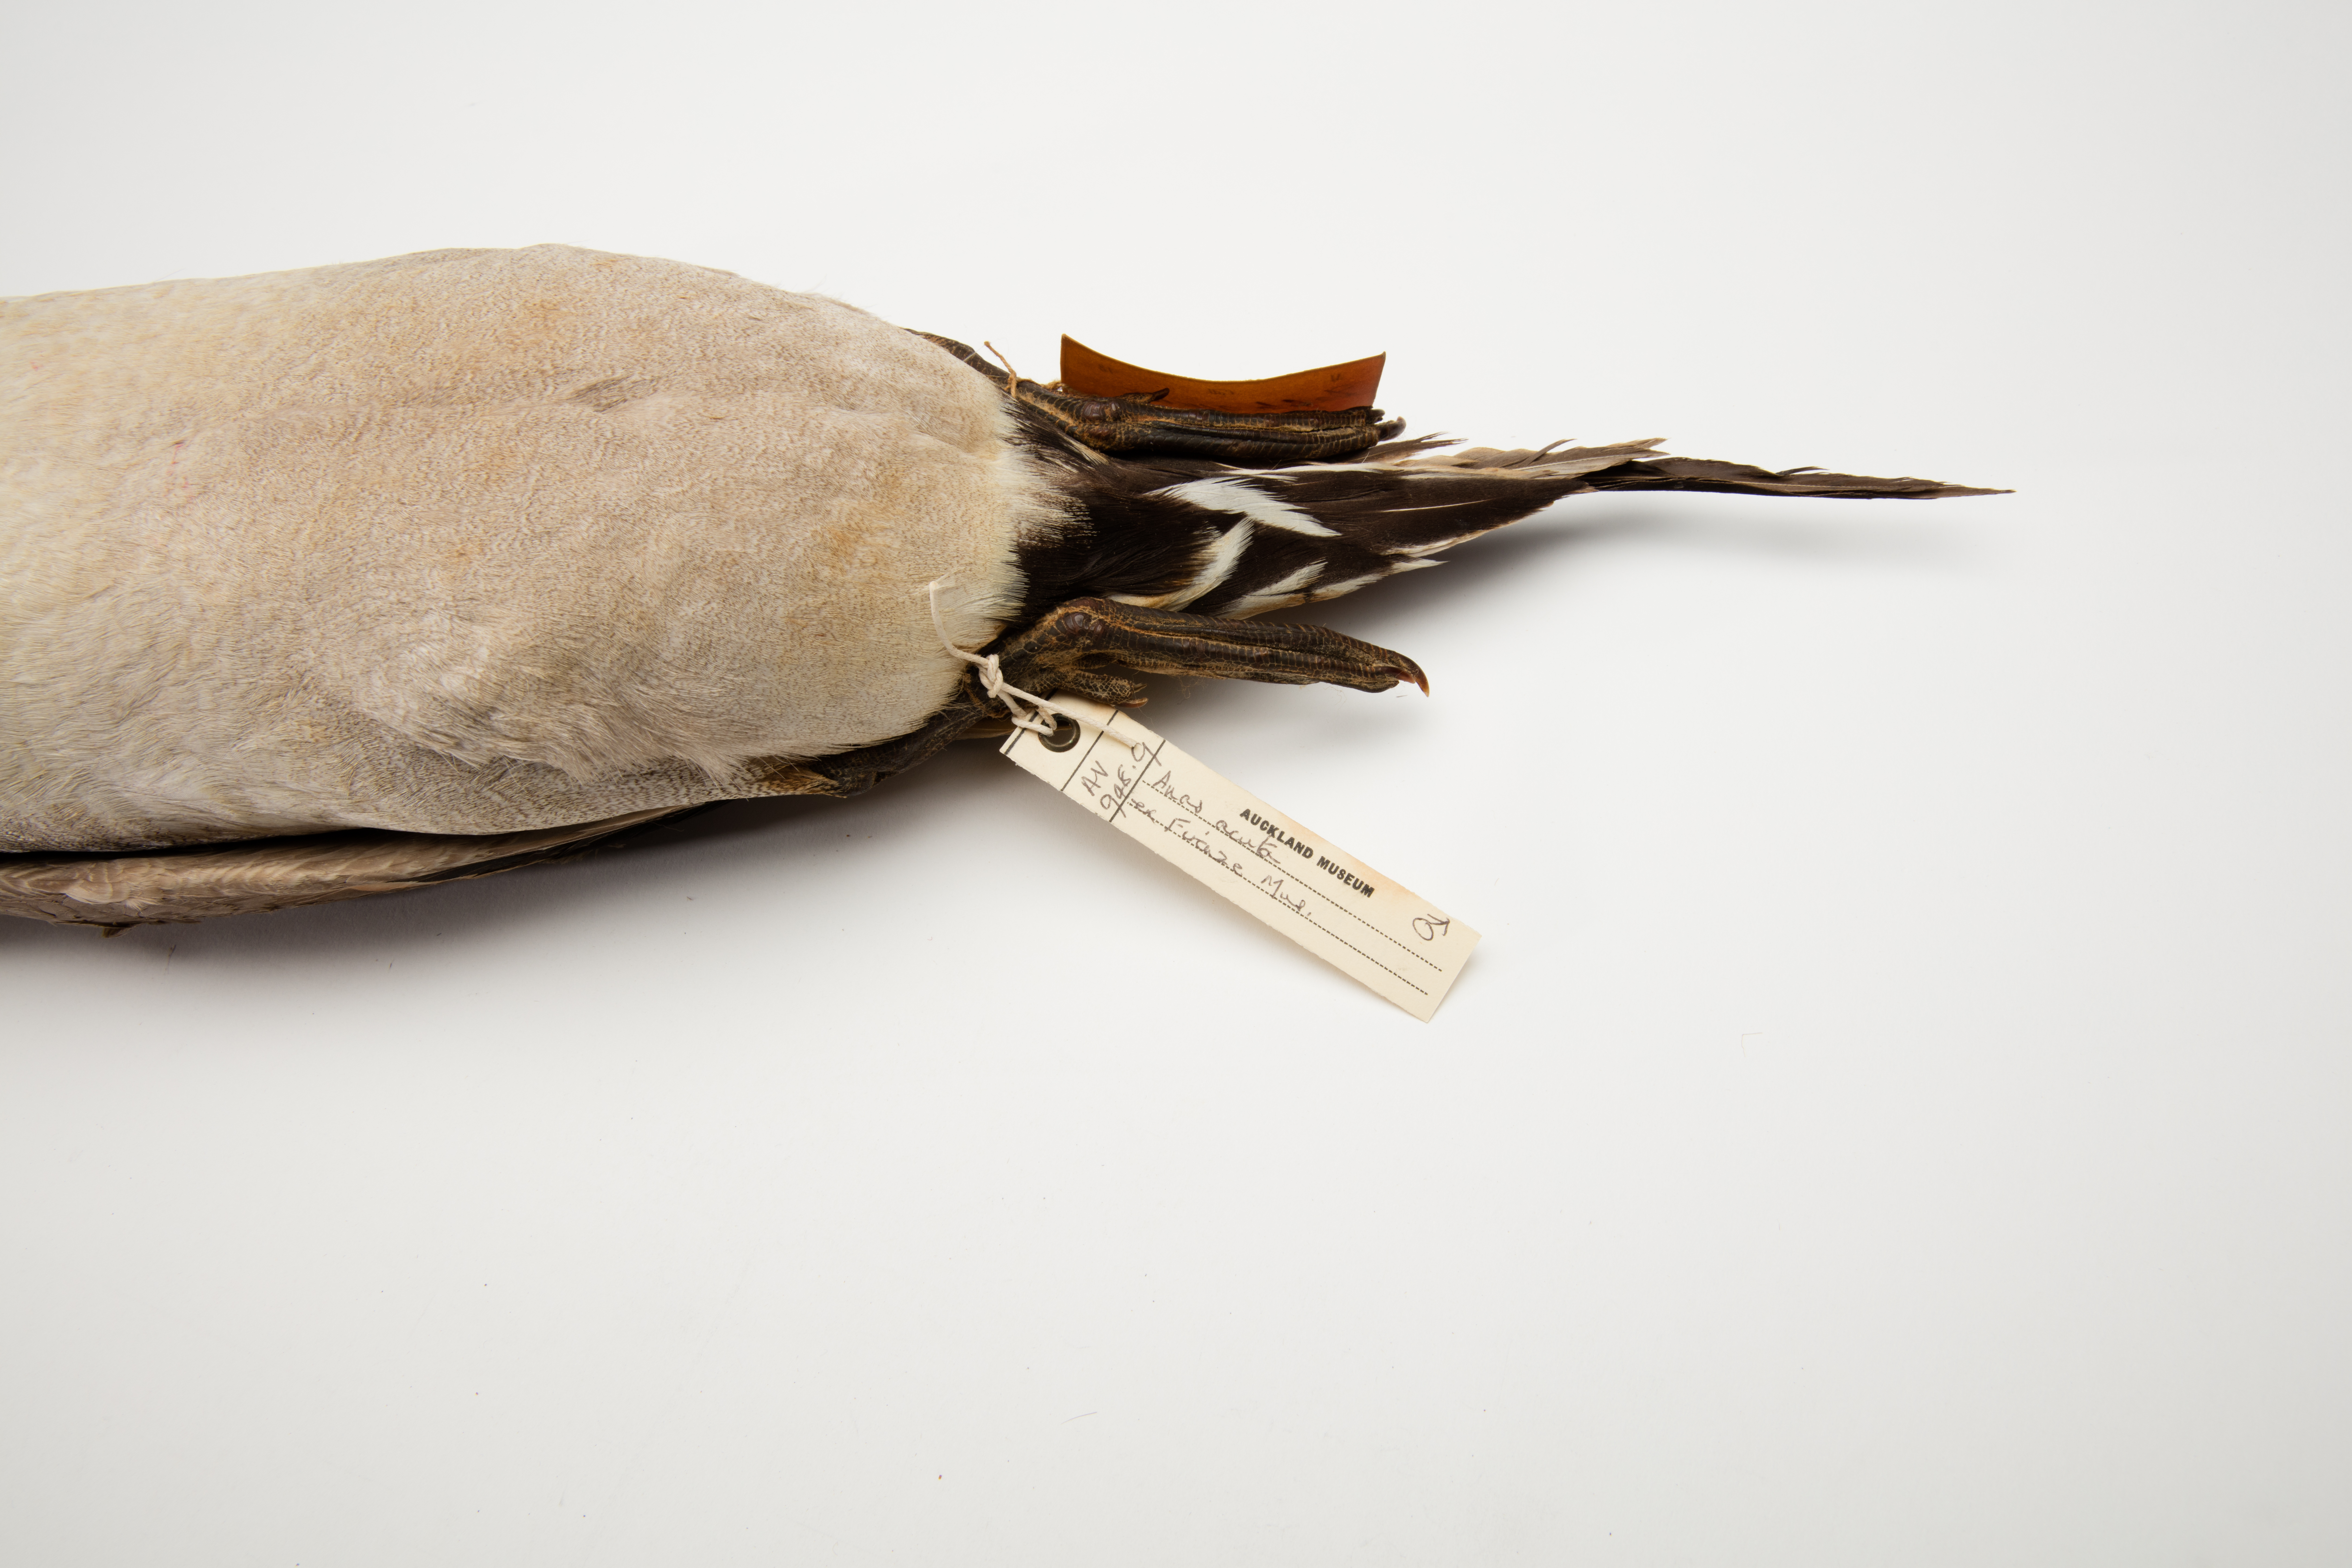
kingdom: Animalia
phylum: Chordata
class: Aves
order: Anseriformes
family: Anatidae
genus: Anas
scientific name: Anas acuta
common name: Northern pintail
